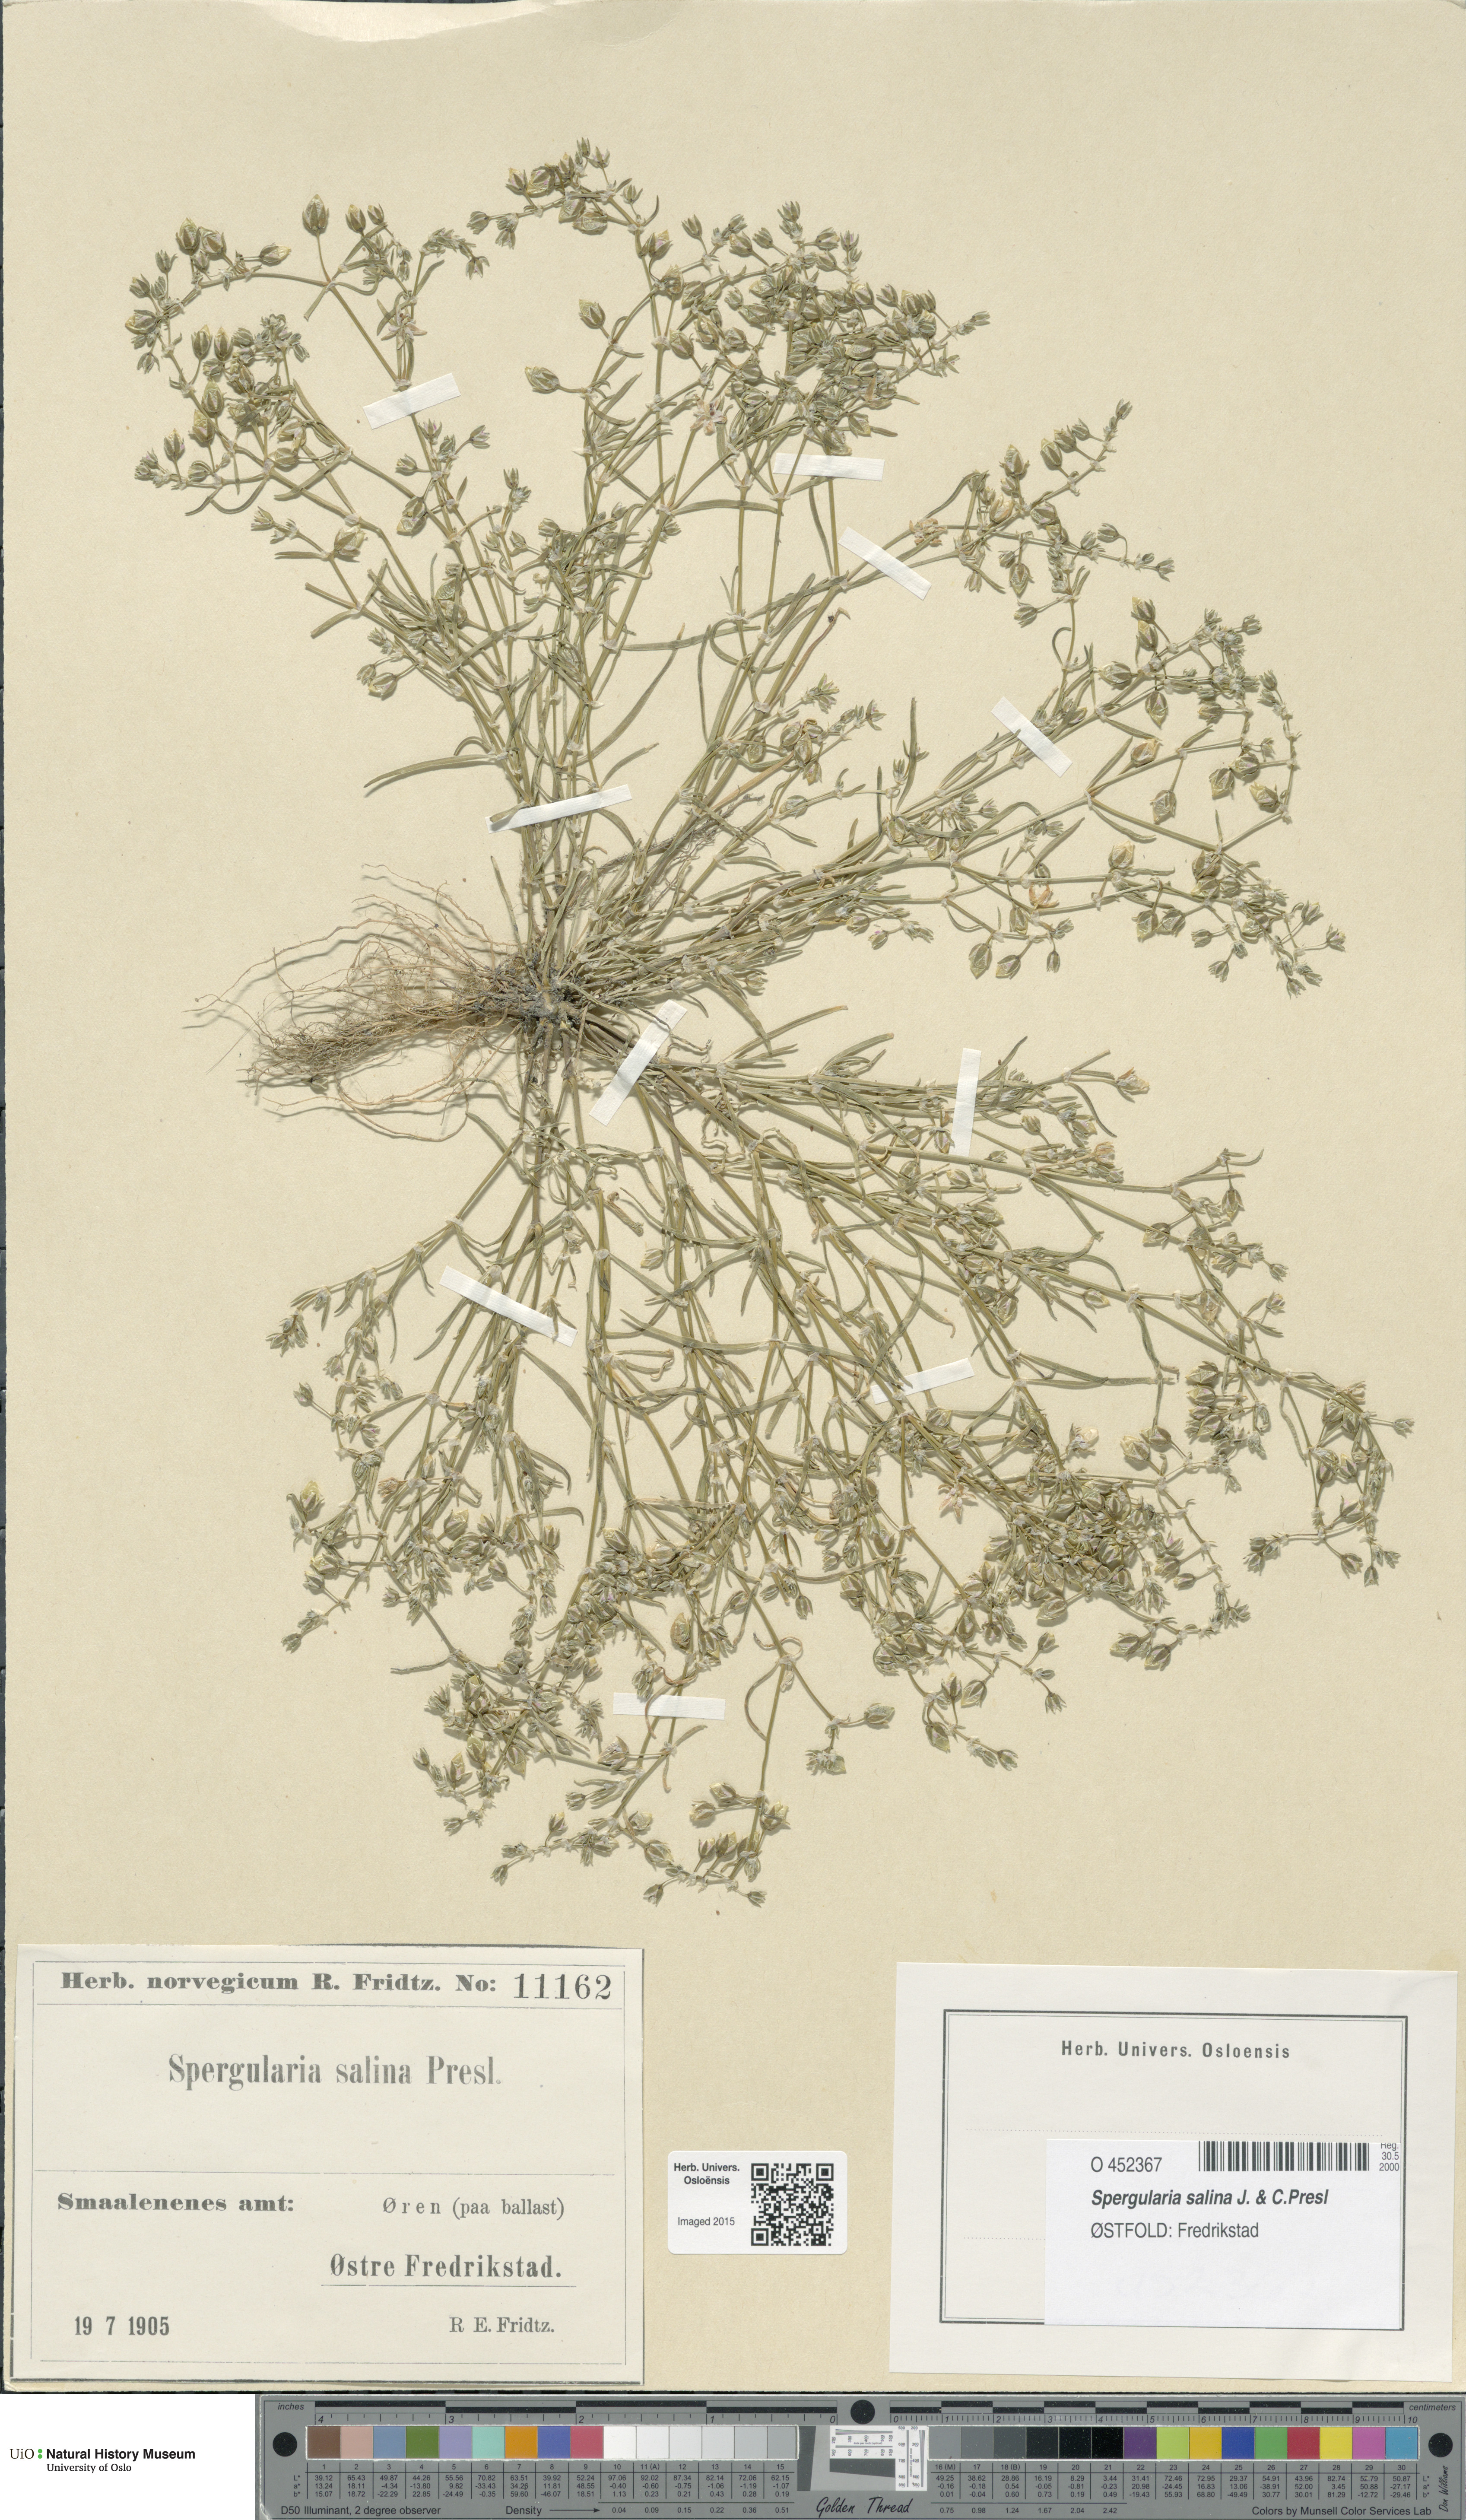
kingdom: Plantae
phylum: Tracheophyta
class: Magnoliopsida
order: Caryophyllales
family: Caryophyllaceae
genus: Spergularia
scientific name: Spergularia marina
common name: Lesser sea-spurrey
